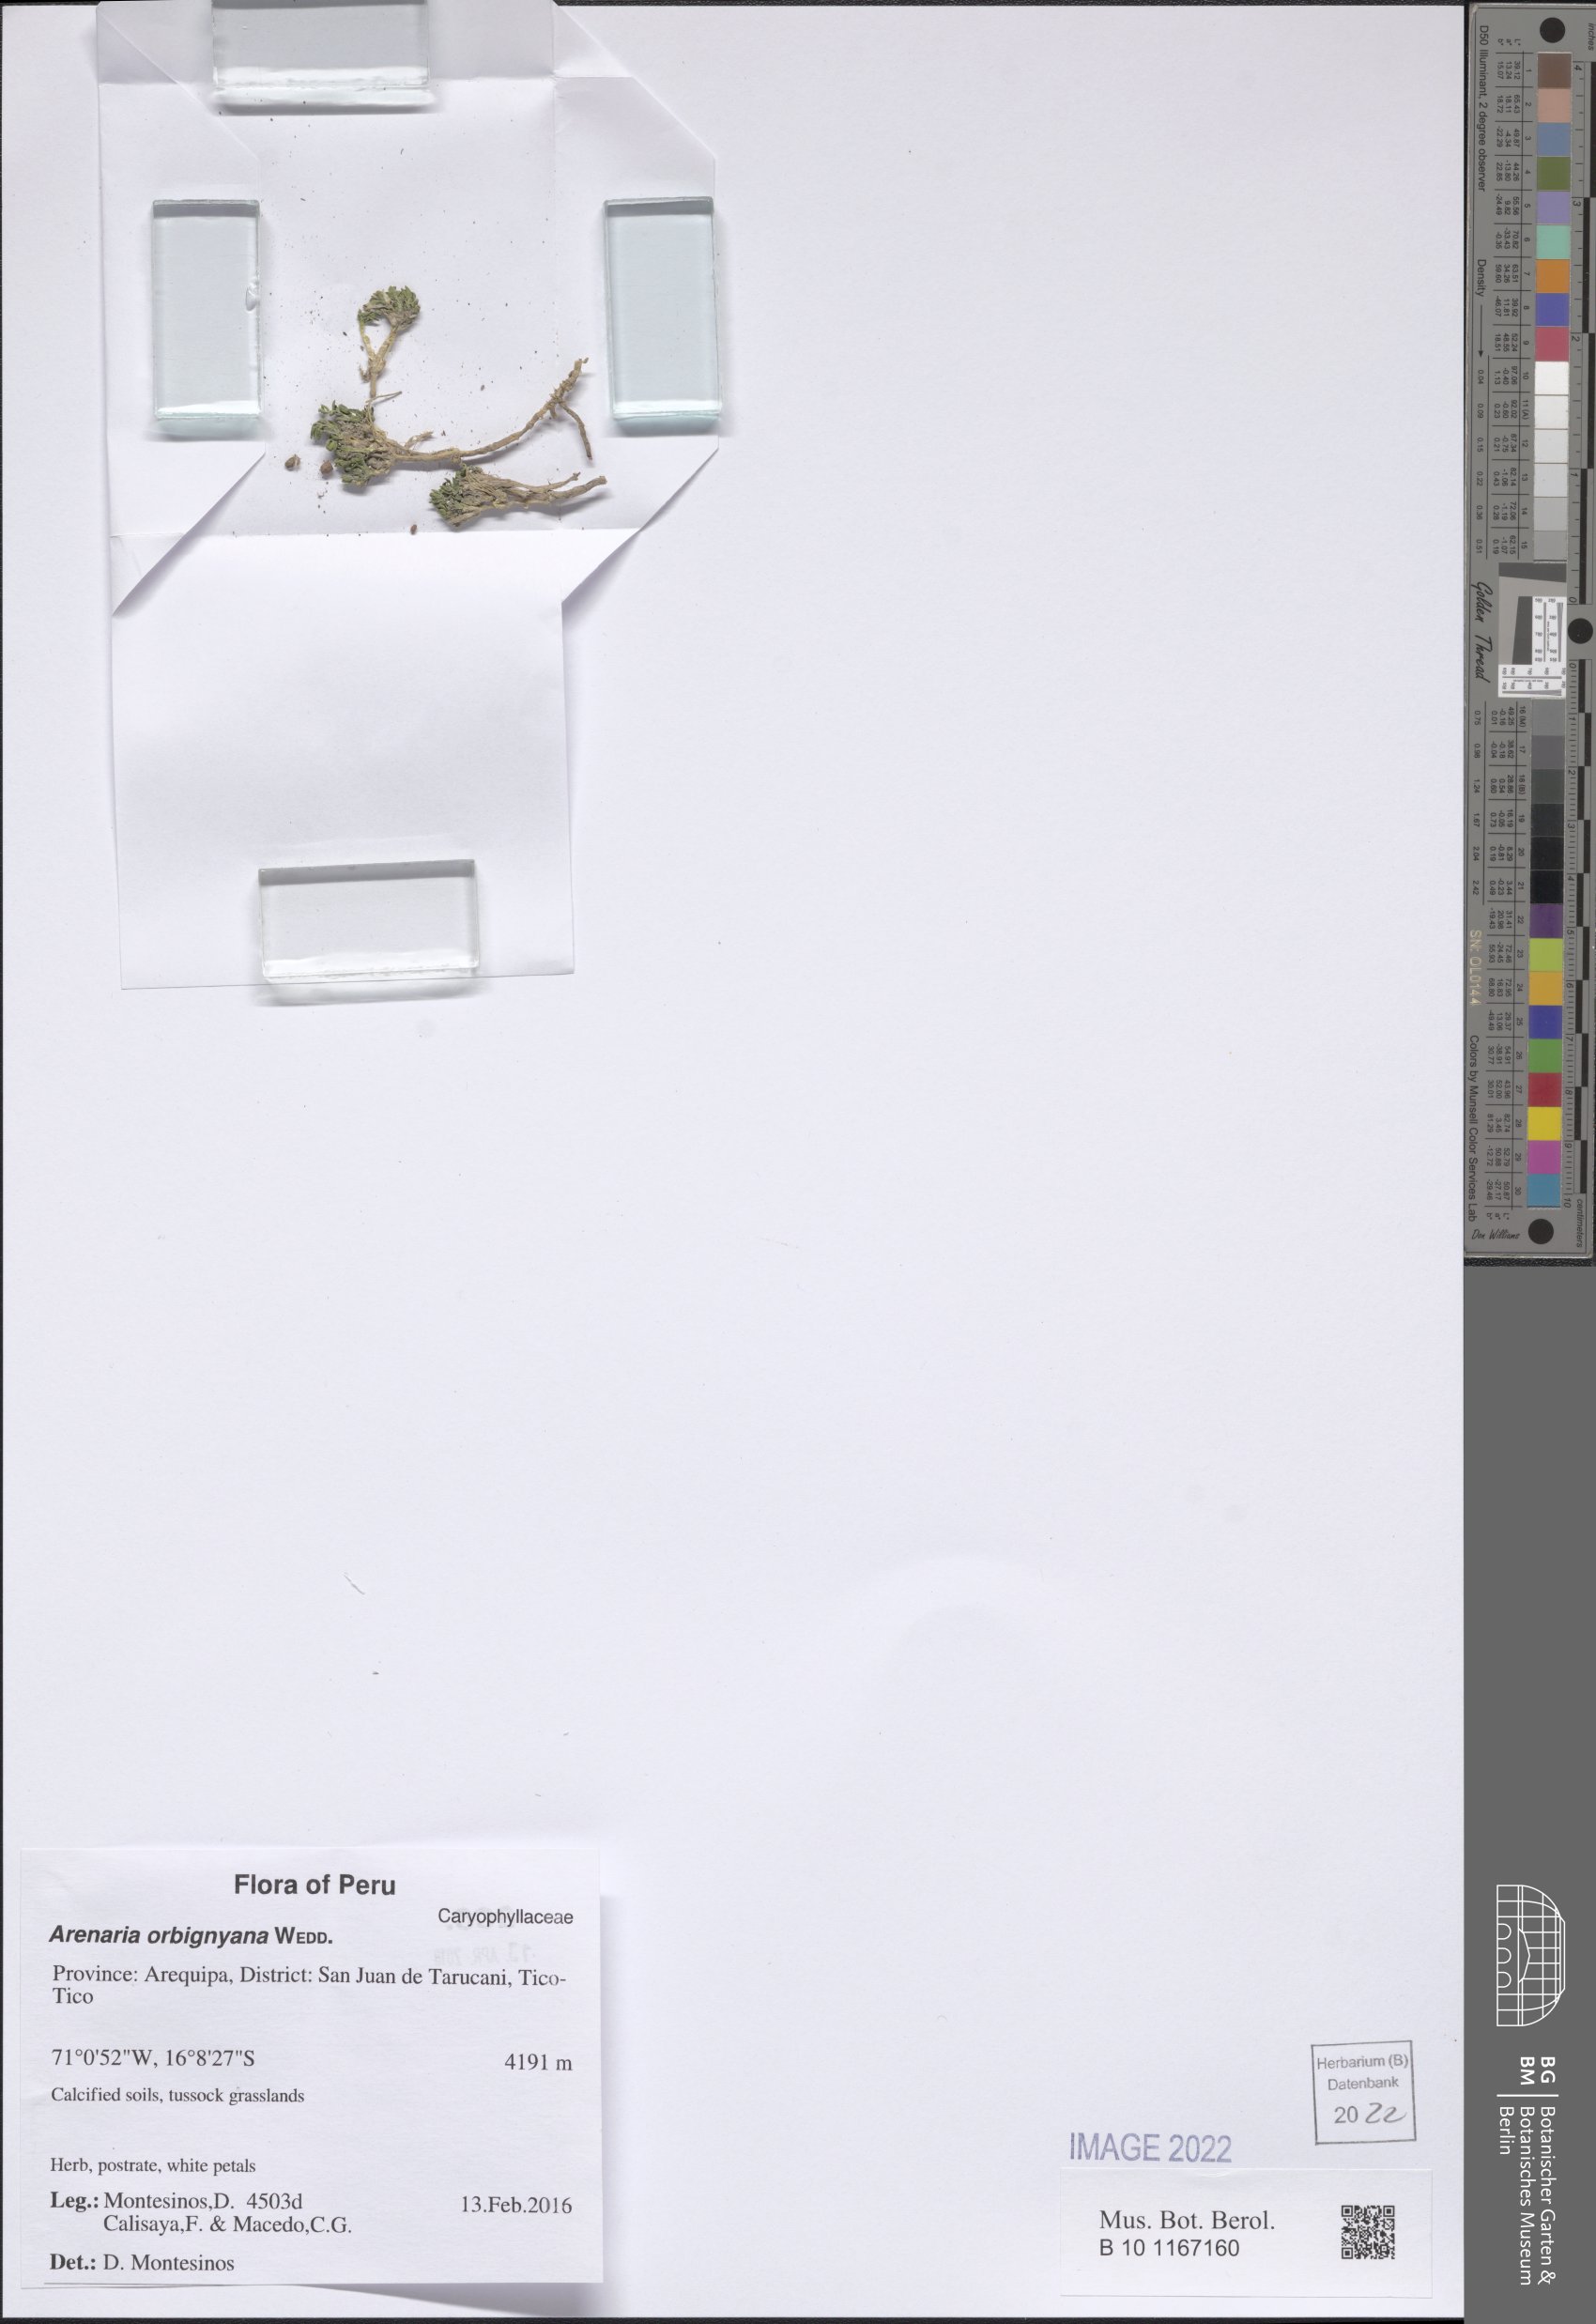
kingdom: Plantae
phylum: Tracheophyta
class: Magnoliopsida
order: Caryophyllales
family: Caryophyllaceae
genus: Arenaria
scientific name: Arenaria orbignyana
